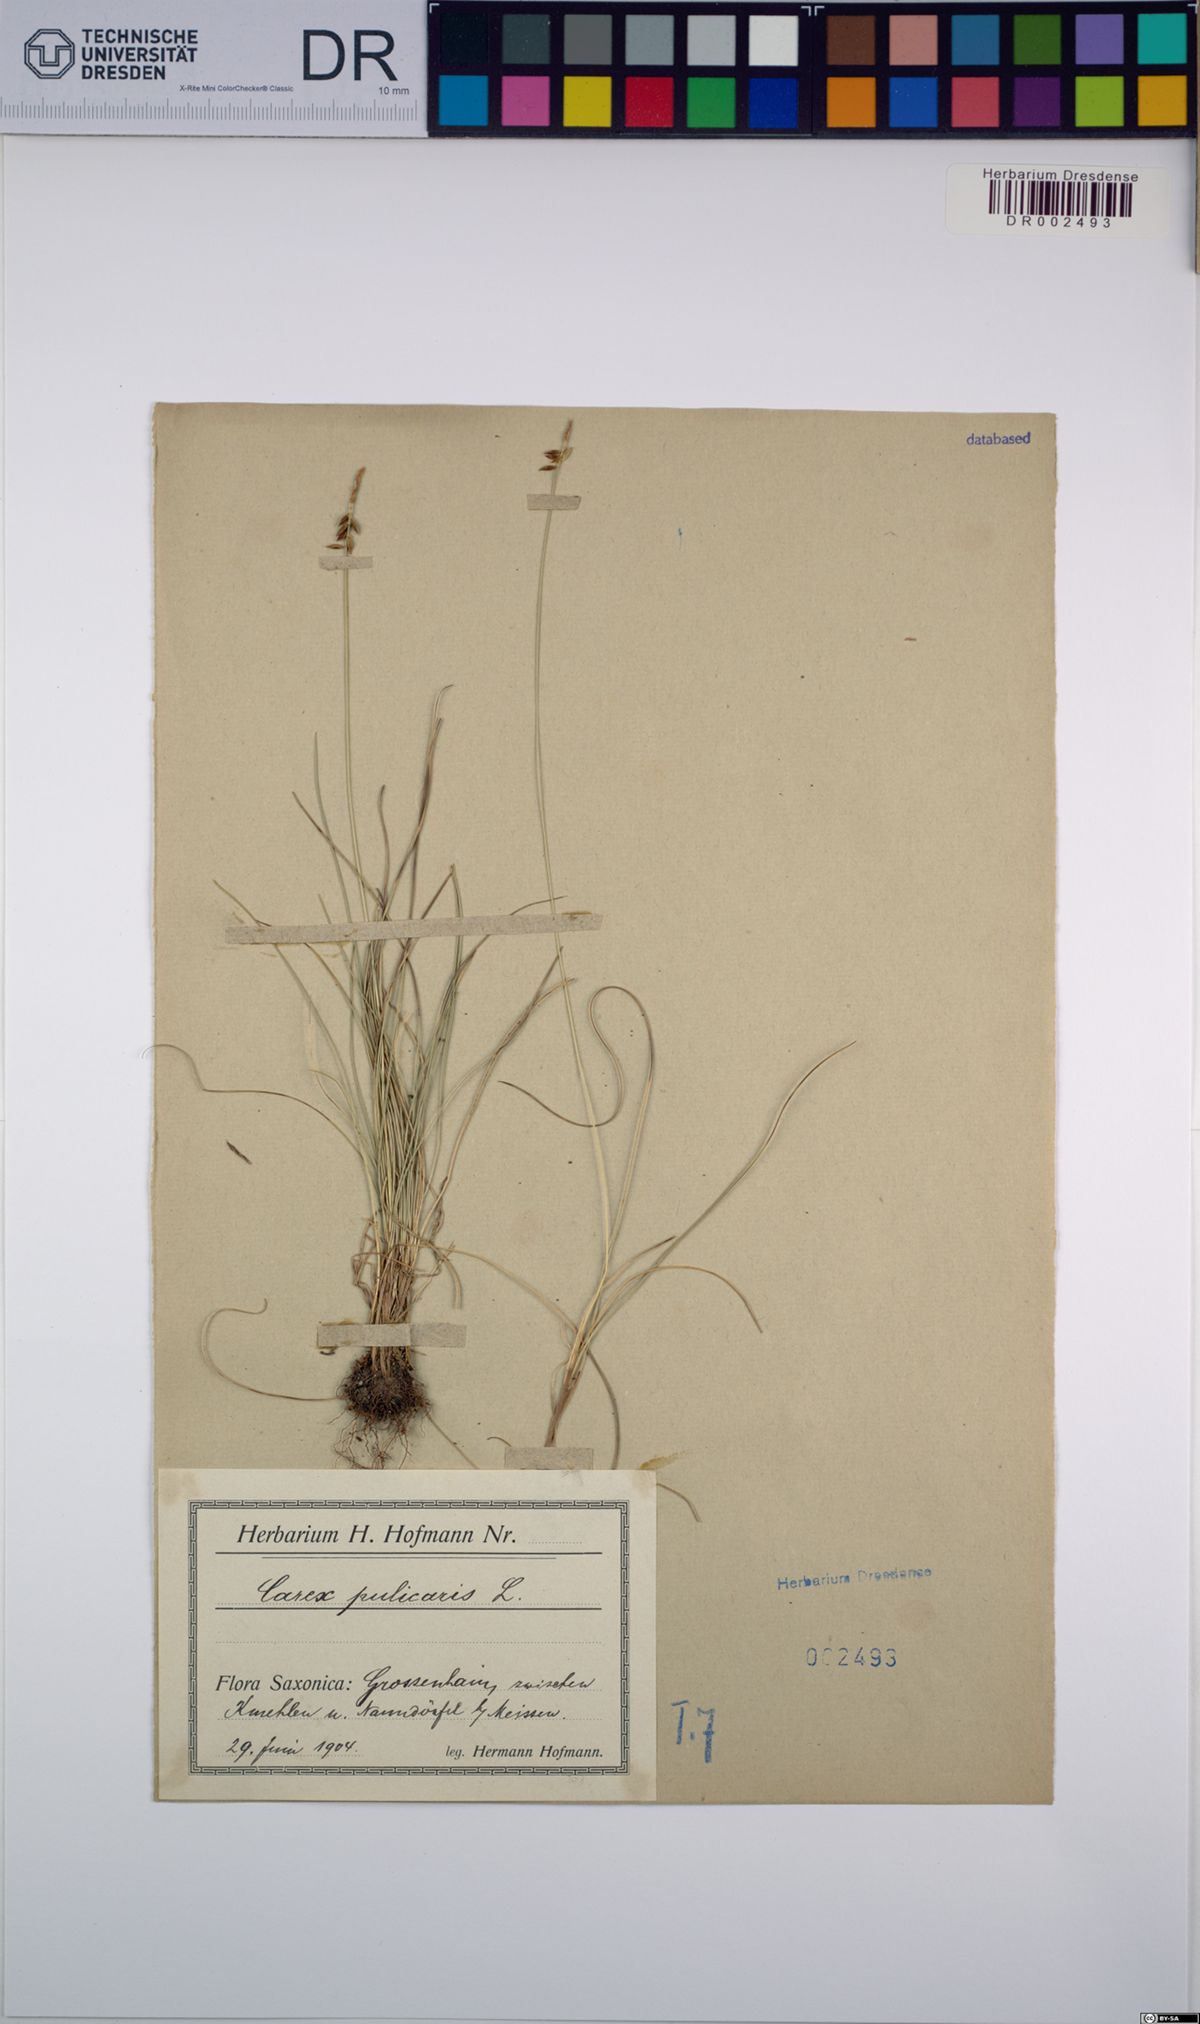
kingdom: Plantae
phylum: Tracheophyta
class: Liliopsida
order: Poales
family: Cyperaceae
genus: Carex
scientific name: Carex pulicaris
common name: Flea sedge
